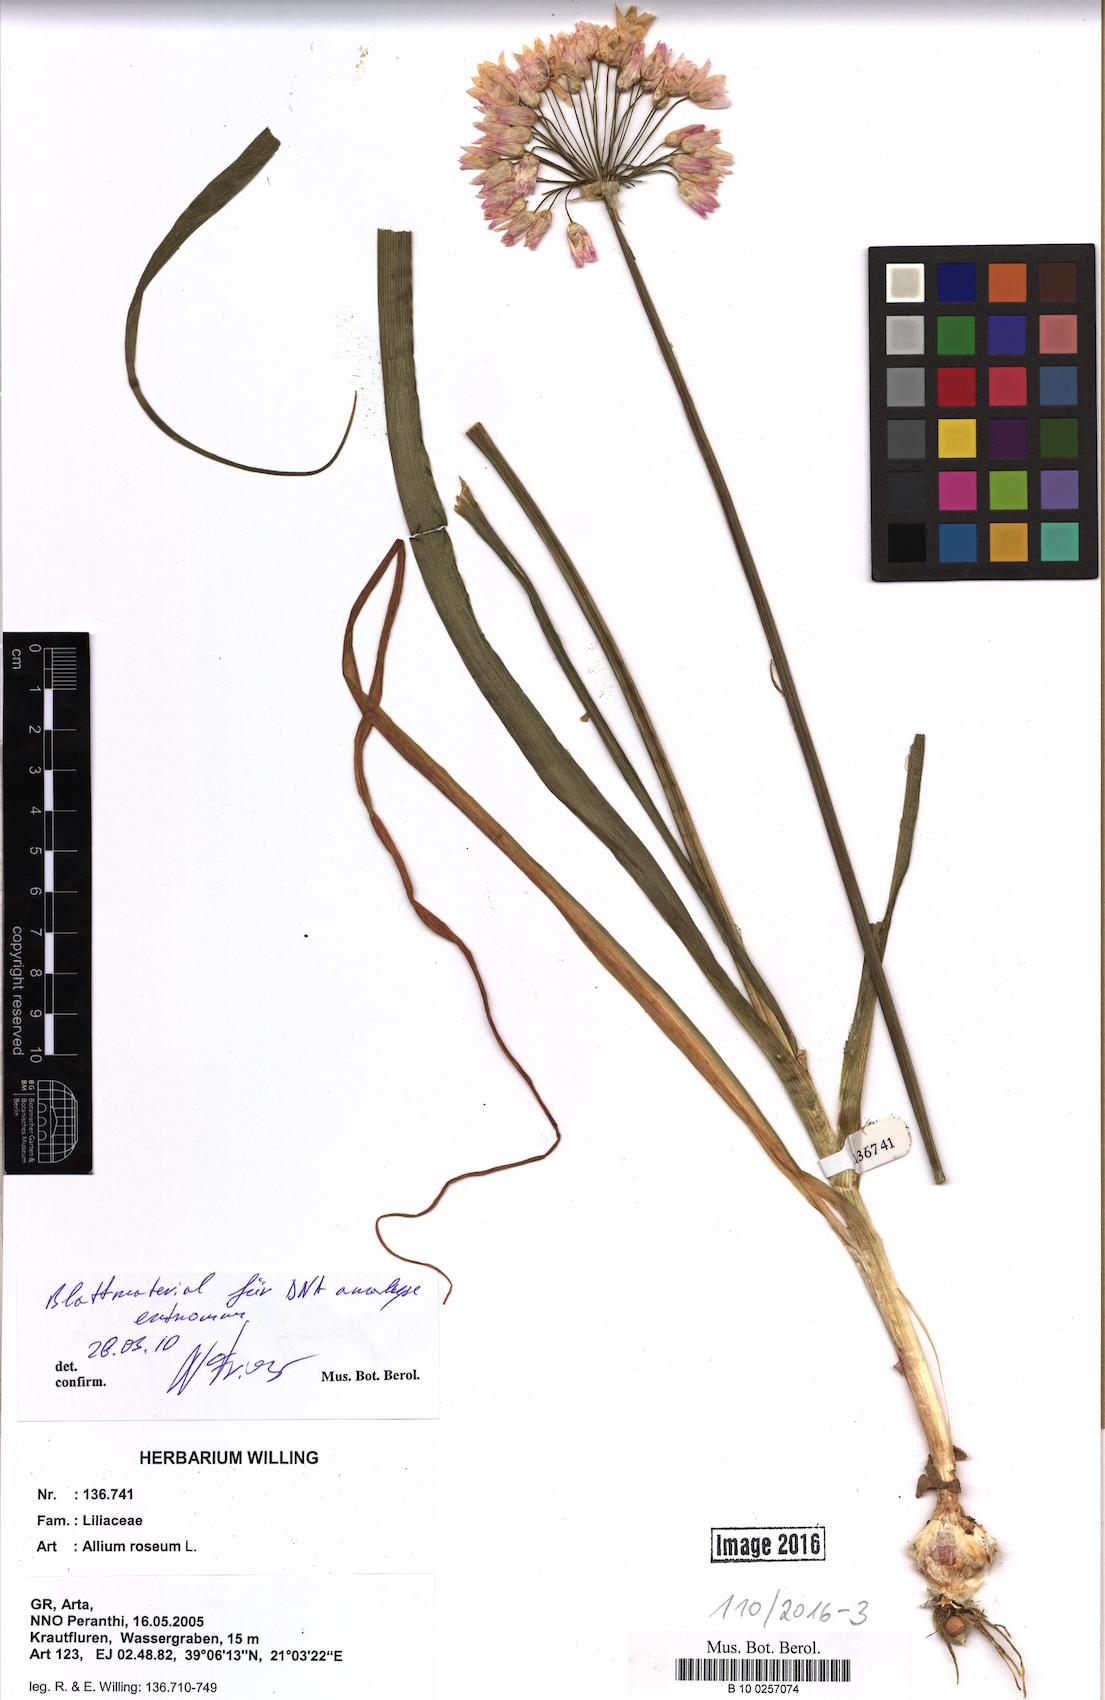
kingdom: Plantae
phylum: Tracheophyta
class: Liliopsida
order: Asparagales
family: Amaryllidaceae
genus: Allium
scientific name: Allium roseum
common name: Rosy garlic
